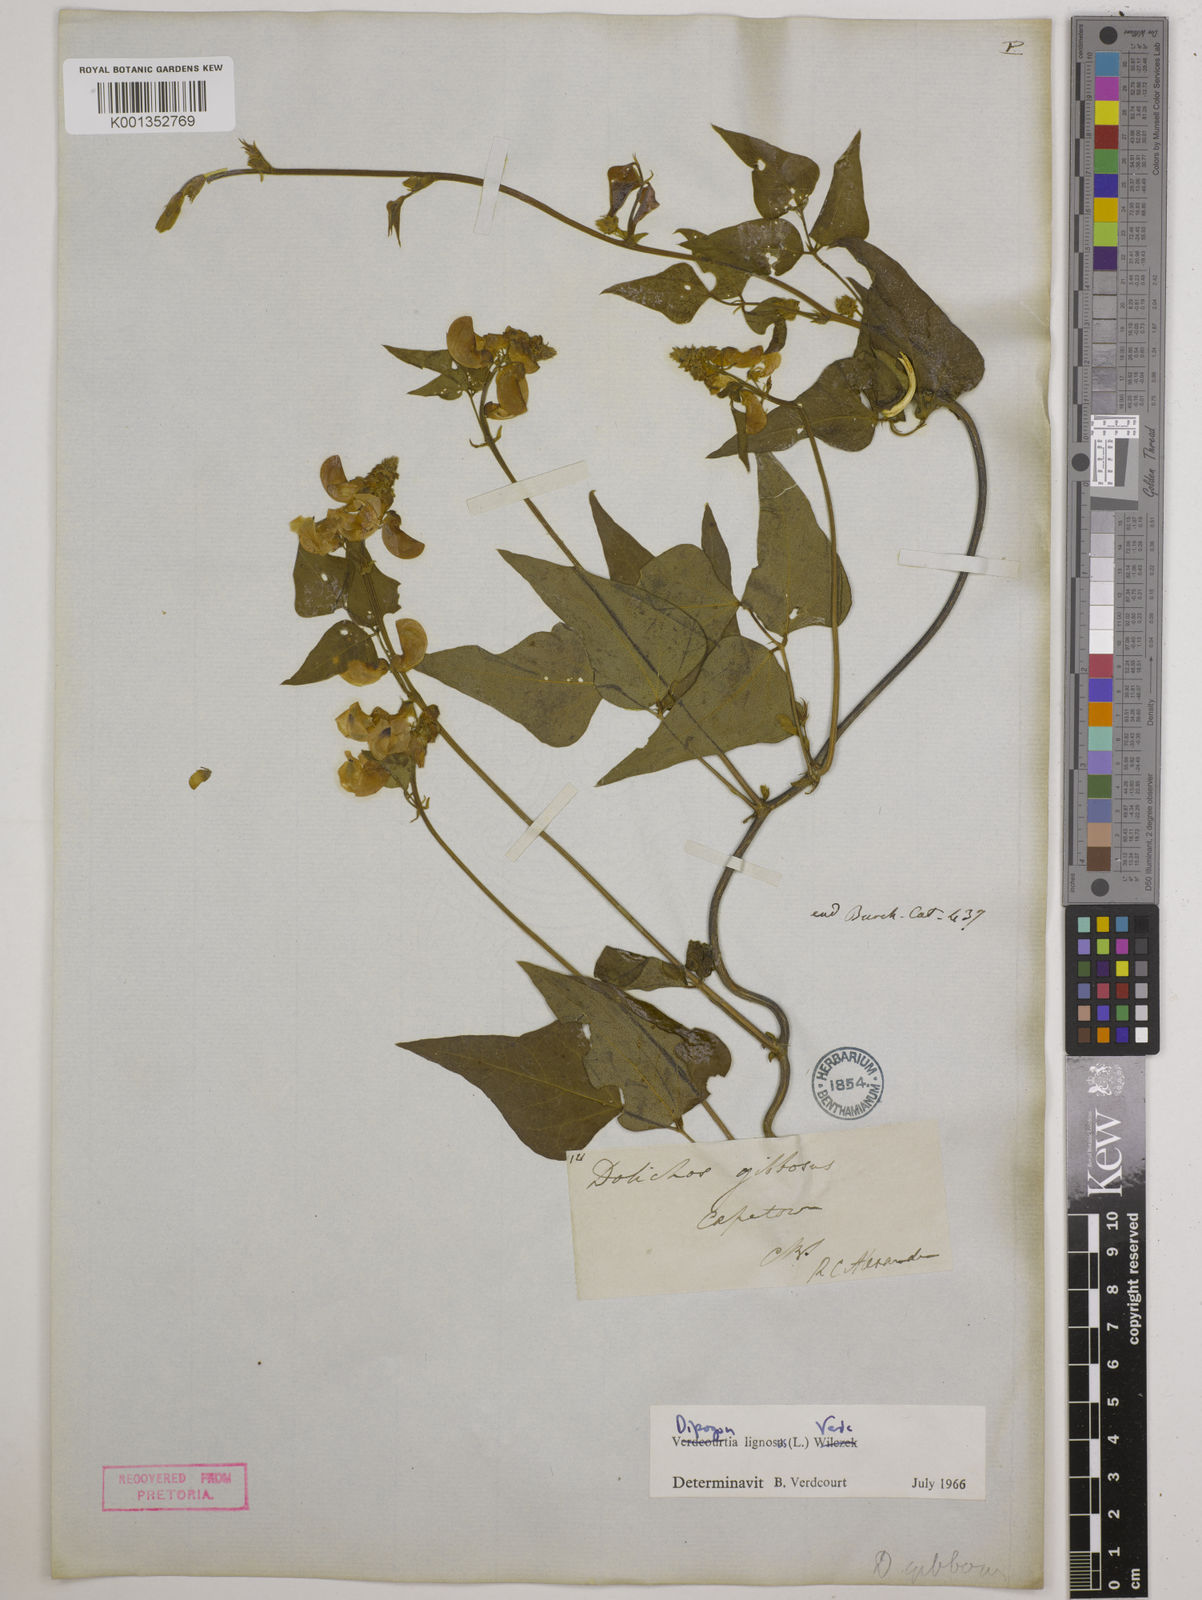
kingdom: Plantae
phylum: Tracheophyta
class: Magnoliopsida
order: Fabales
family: Fabaceae
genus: Dipogon
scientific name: Dipogon lignosus
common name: Okie bean
